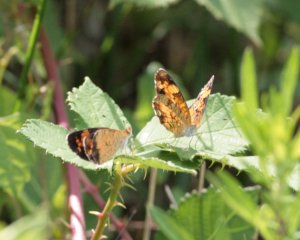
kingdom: Animalia
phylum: Arthropoda
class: Insecta
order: Lepidoptera
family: Nymphalidae
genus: Phyciodes
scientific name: Phyciodes tharos
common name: Pearl Crescent
